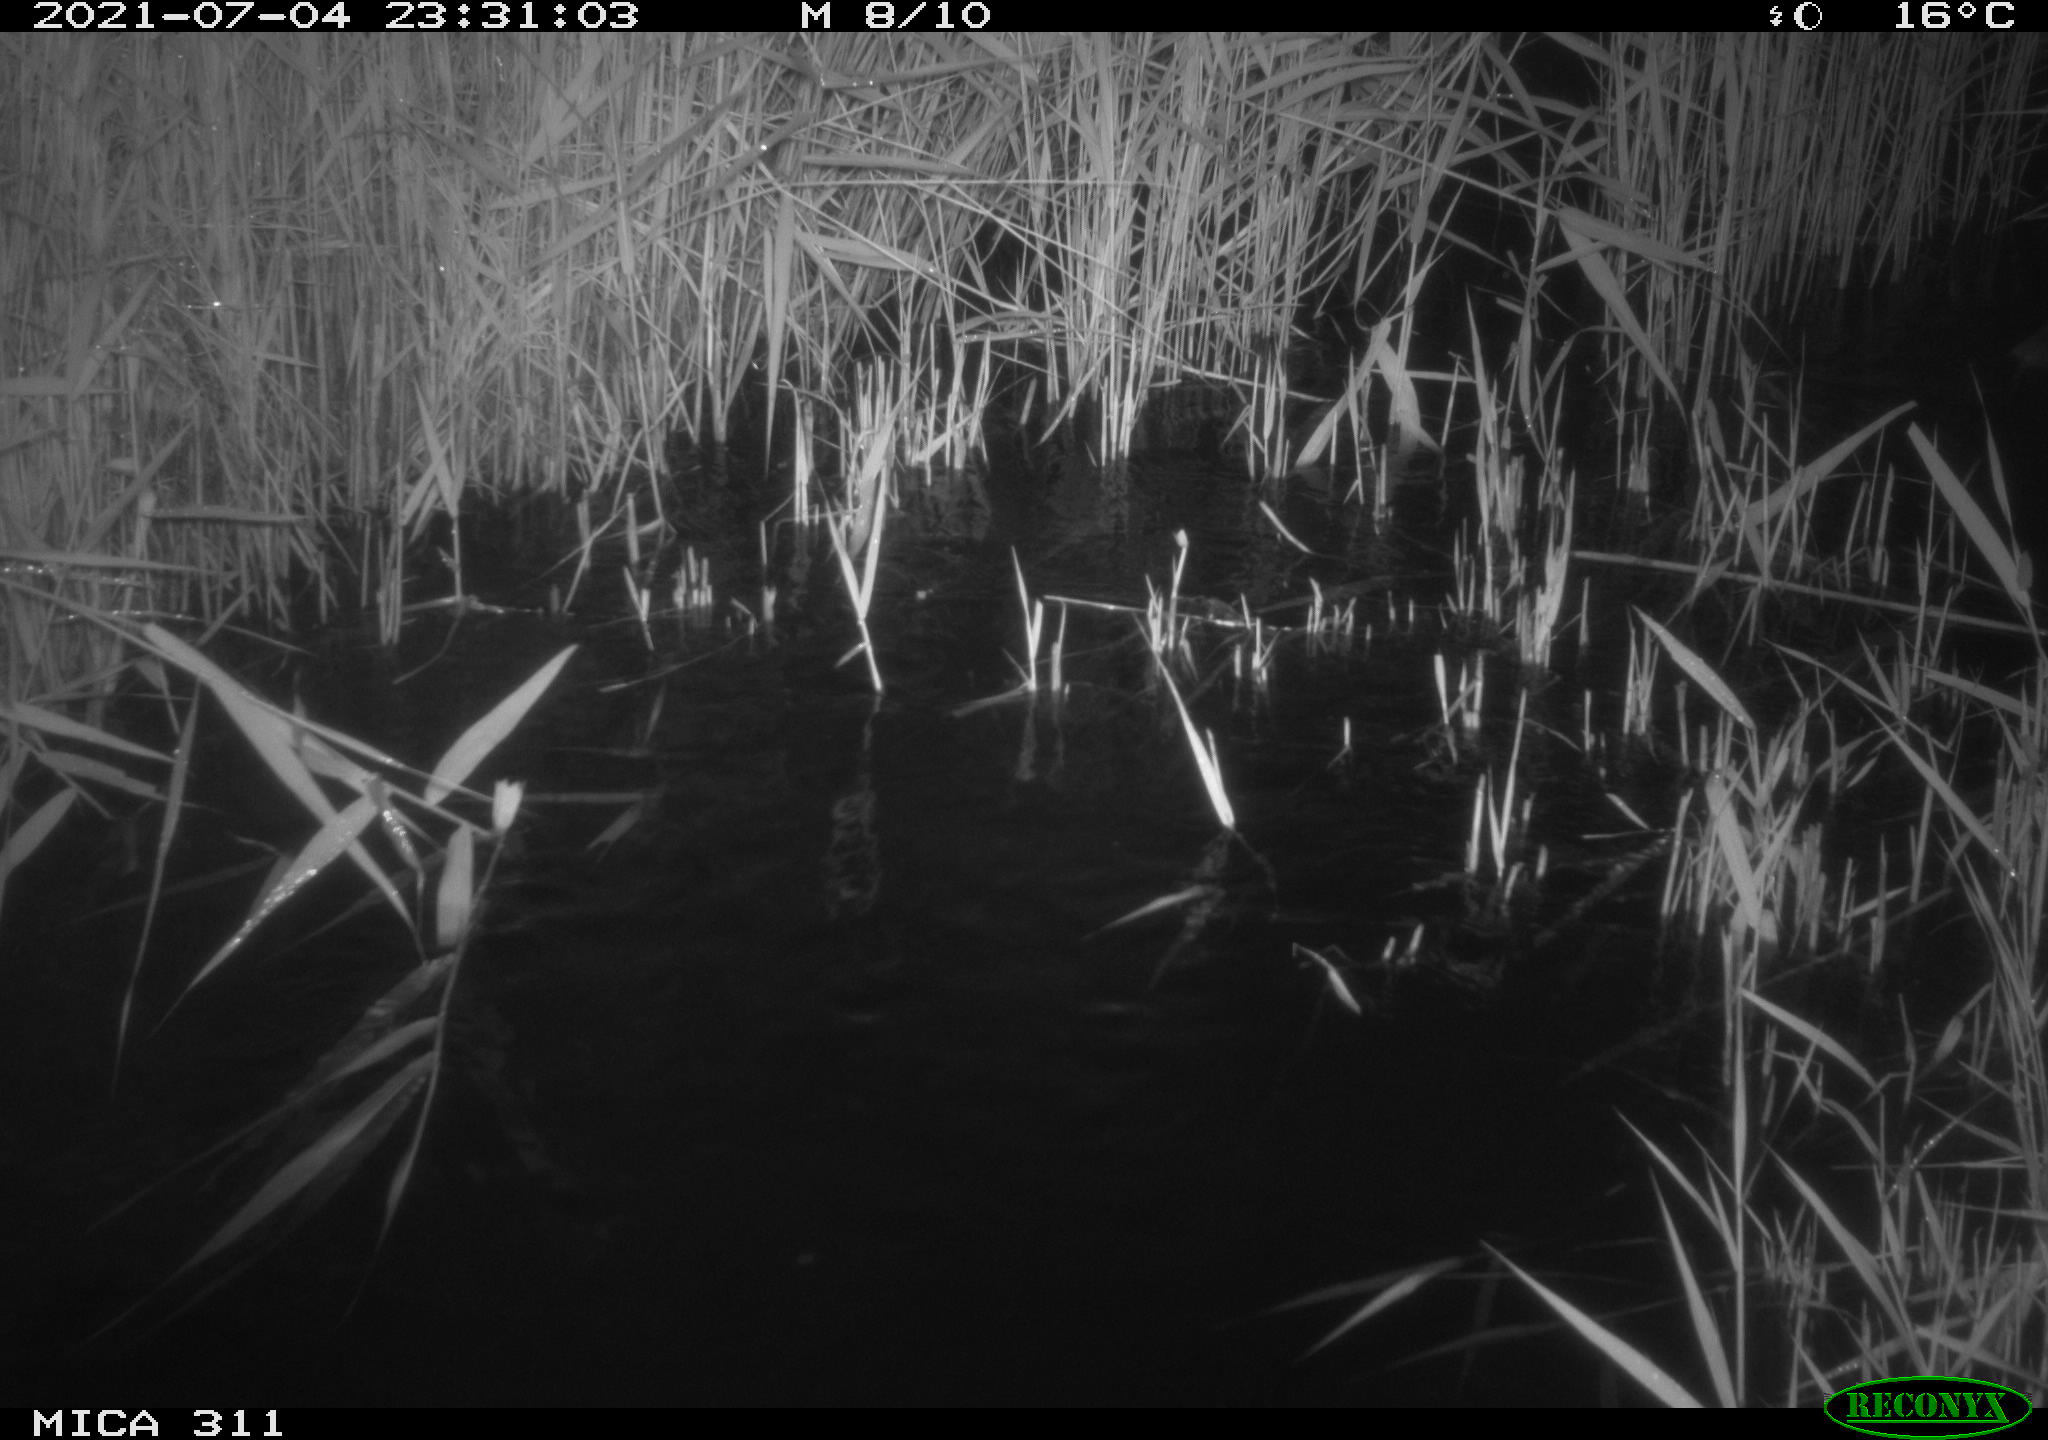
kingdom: Animalia
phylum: Chordata
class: Mammalia
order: Rodentia
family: Muridae
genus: Rattus
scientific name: Rattus norvegicus
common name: Brown rat
